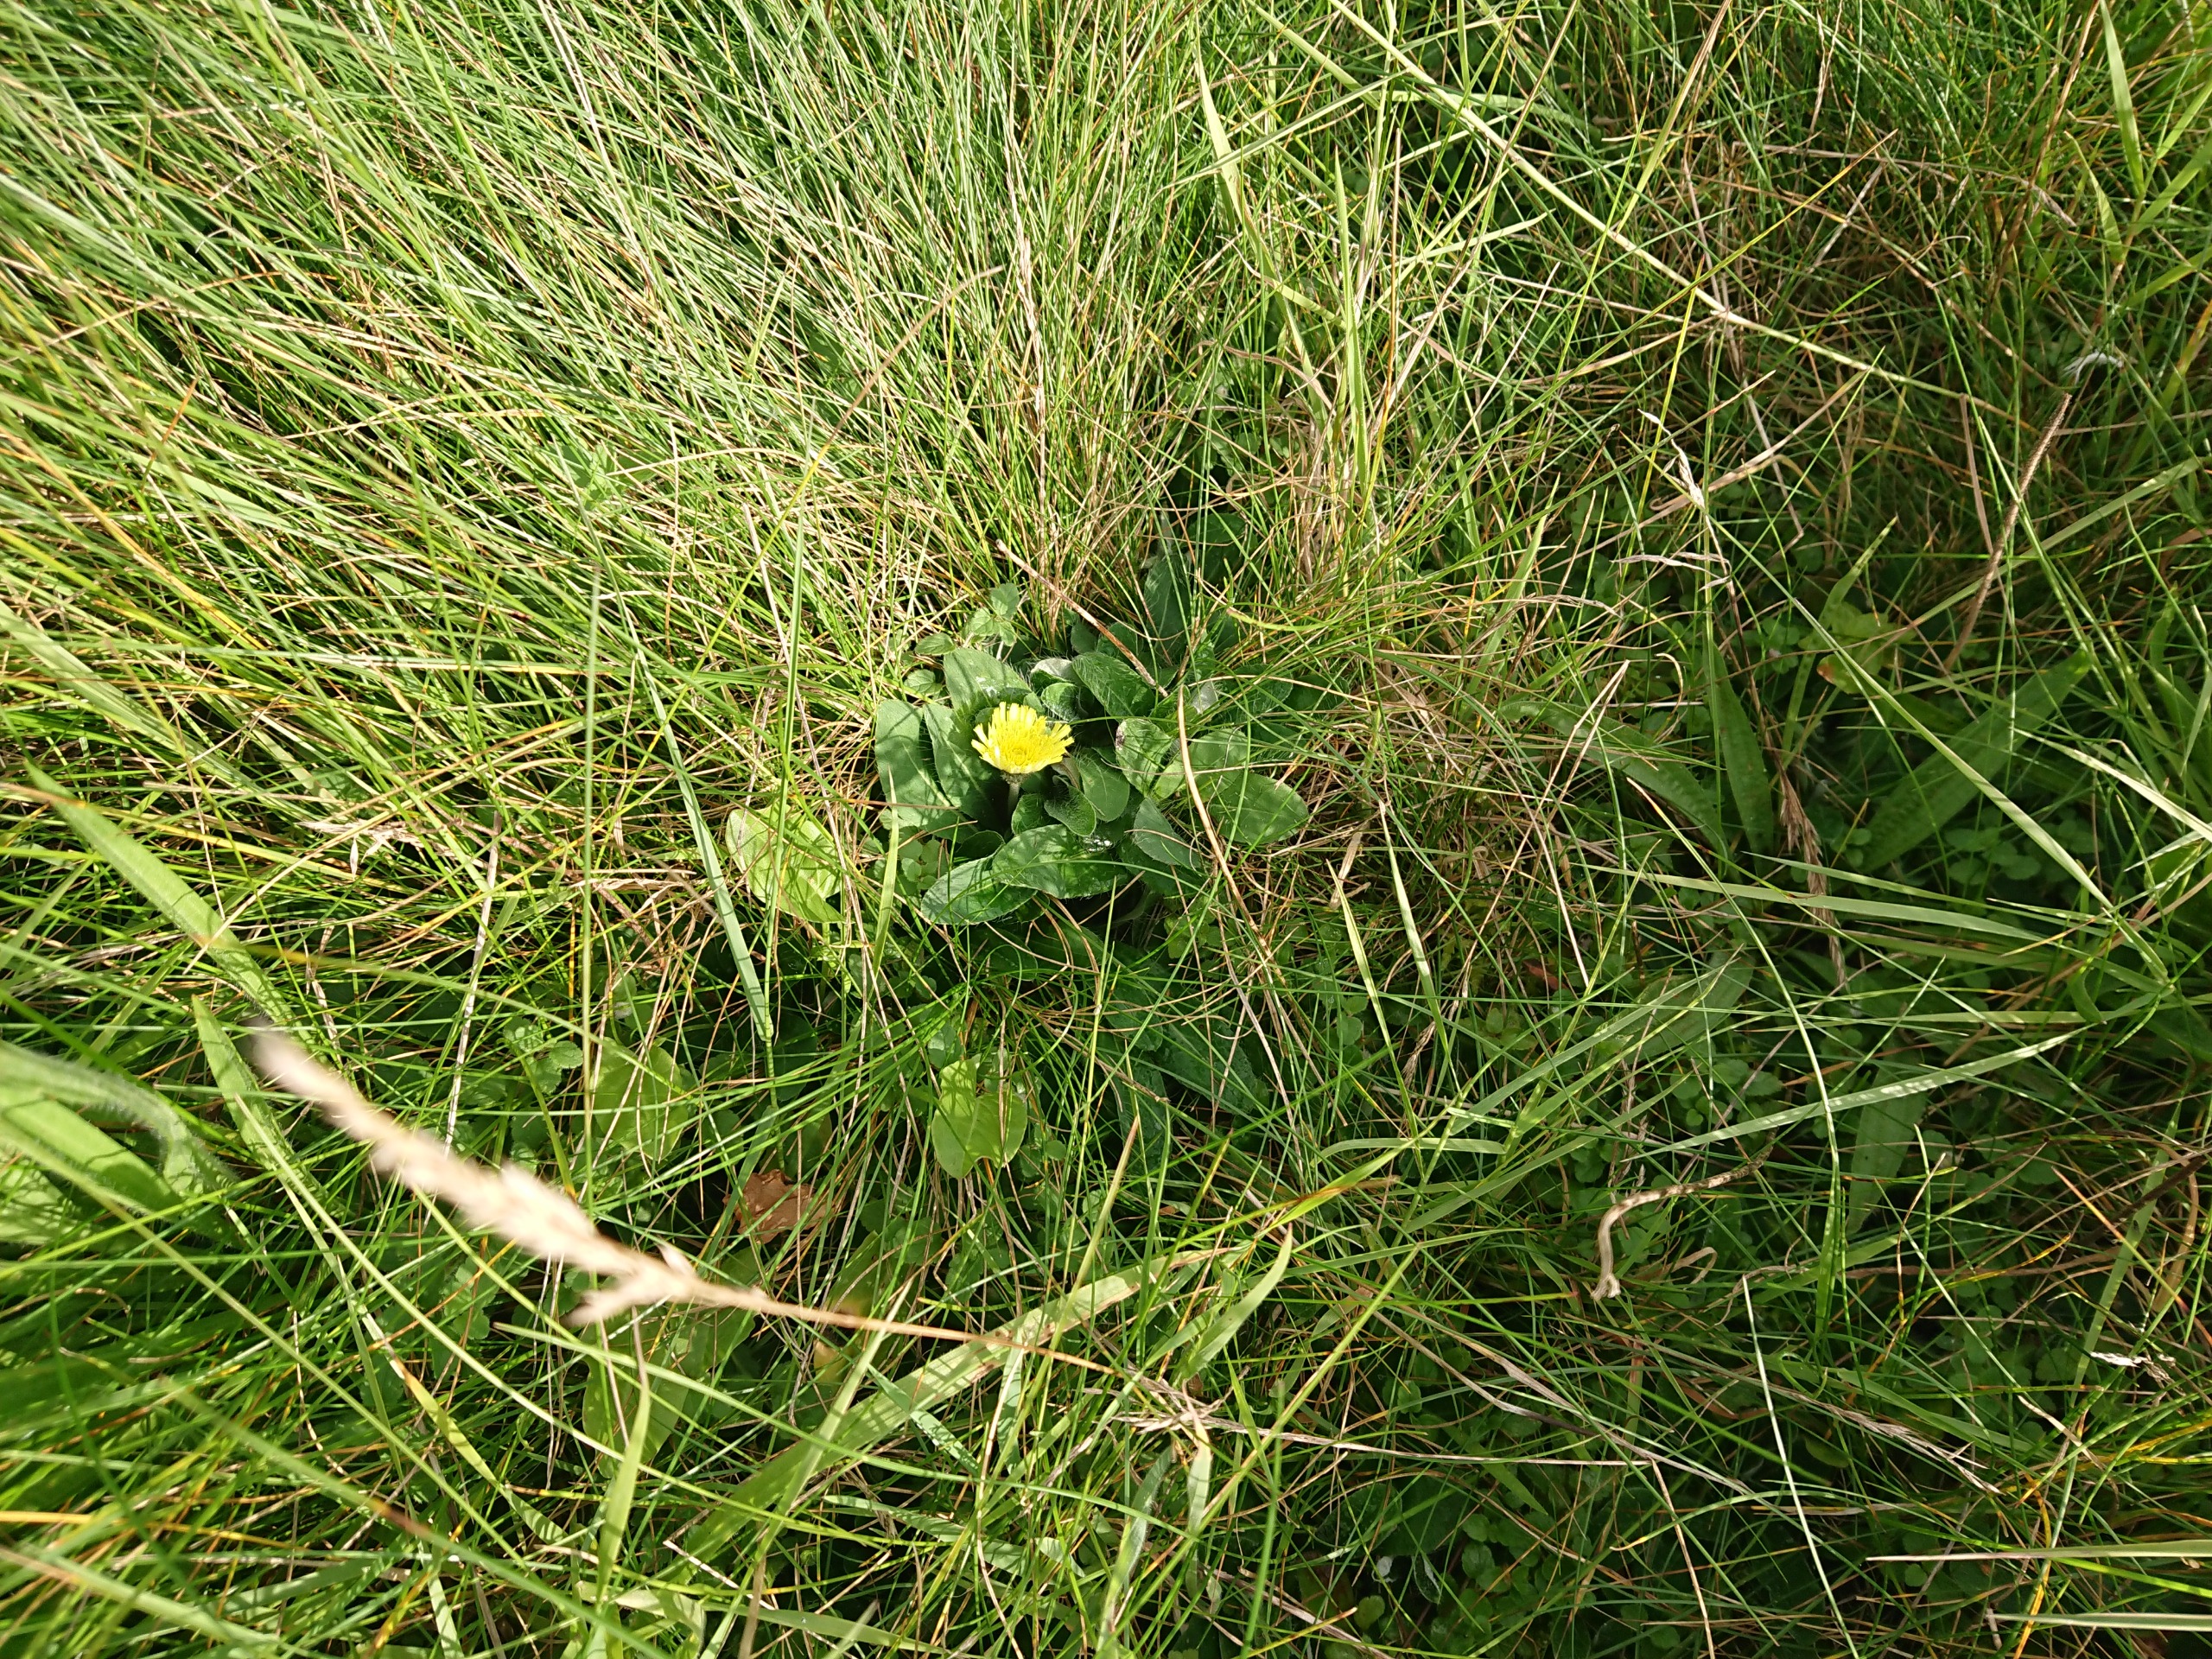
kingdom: Plantae
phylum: Tracheophyta
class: Magnoliopsida
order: Asterales
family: Asteraceae
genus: Pilosella
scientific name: Pilosella officinarum
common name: Håret høgeurt
